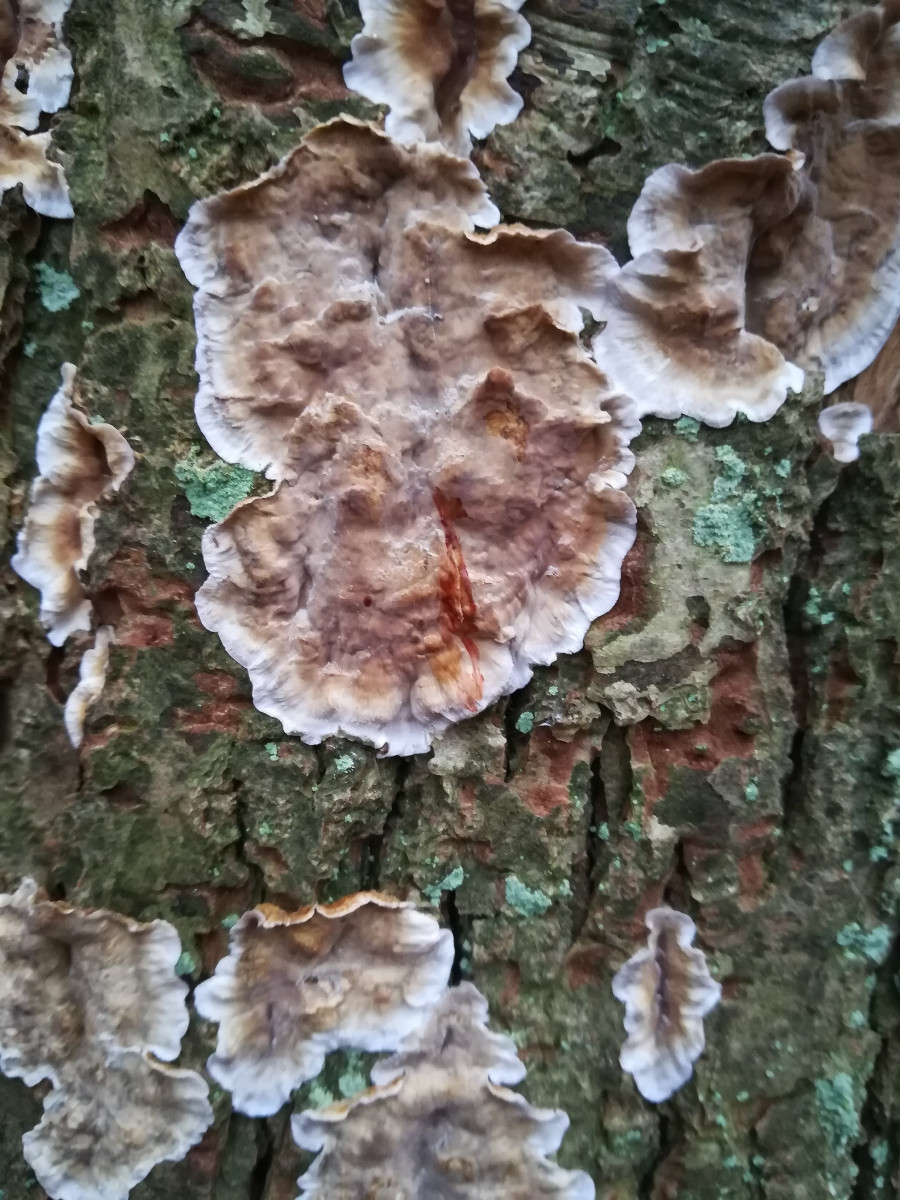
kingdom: Fungi
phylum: Basidiomycota
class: Agaricomycetes
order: Russulales
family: Stereaceae
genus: Stereum
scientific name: Stereum rugosum
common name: rynket lædersvamp
